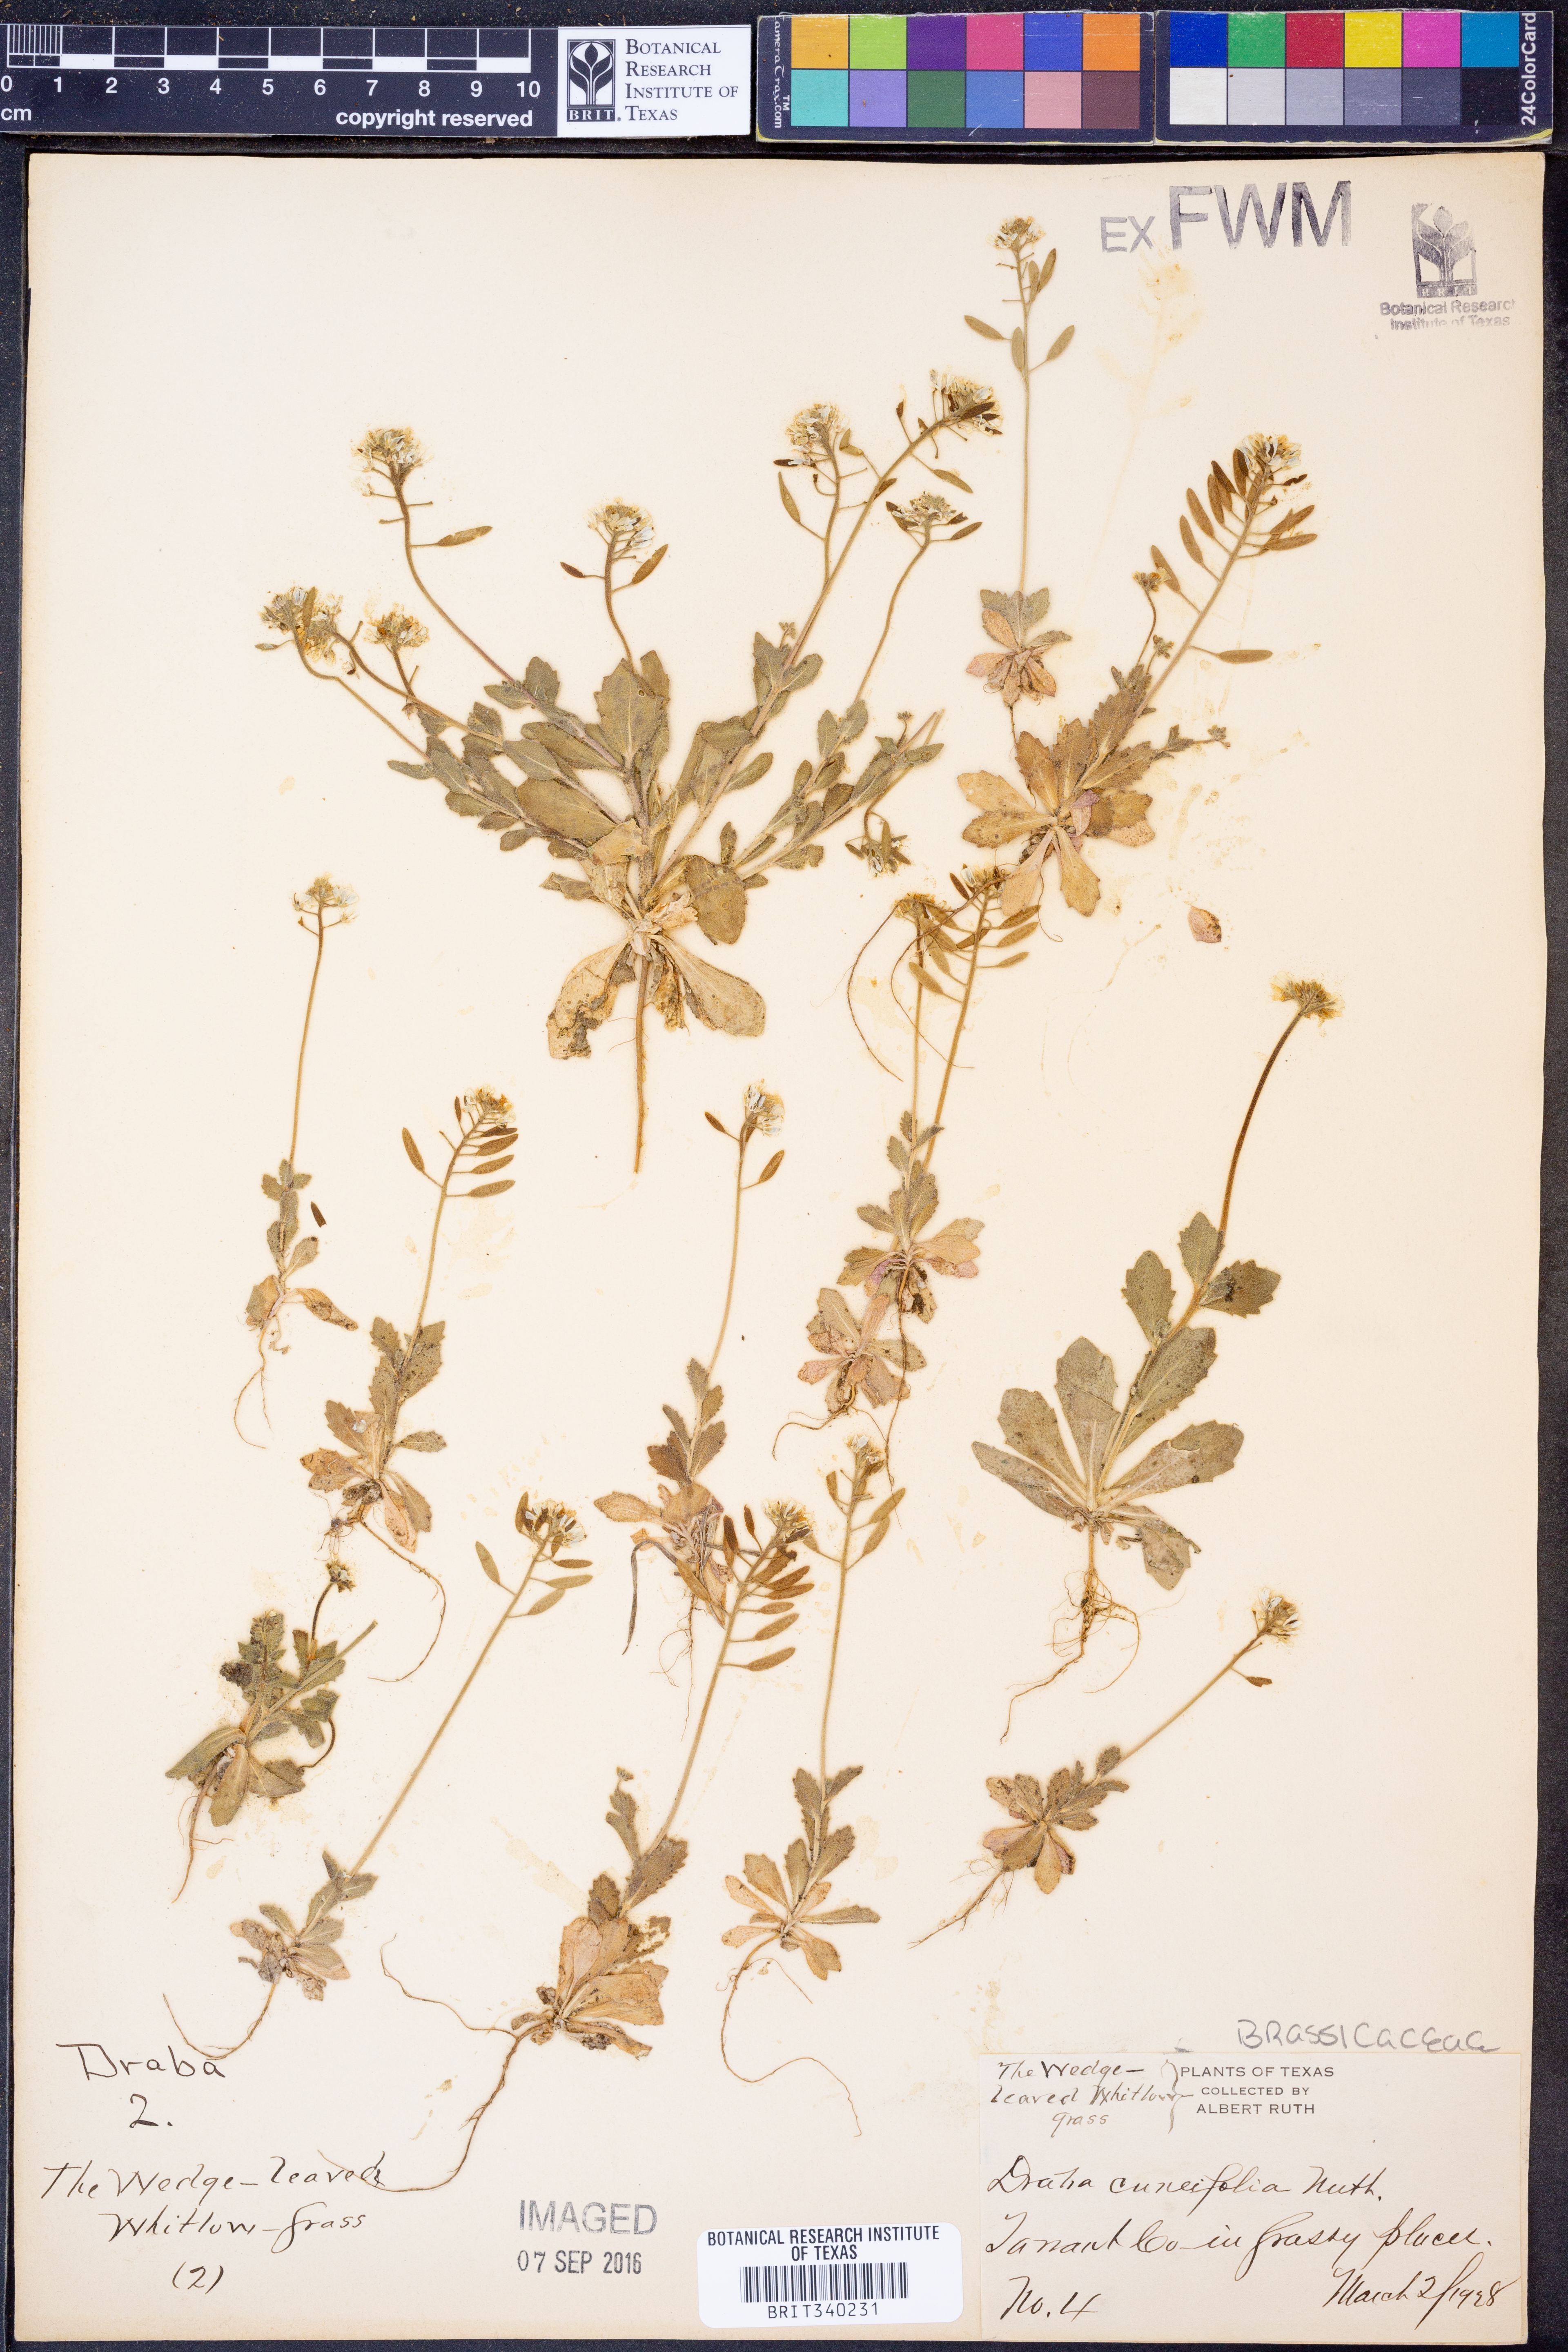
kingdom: Plantae
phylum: Tracheophyta
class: Magnoliopsida
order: Brassicales
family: Brassicaceae
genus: Tomostima
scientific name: Tomostima cuneifolia
